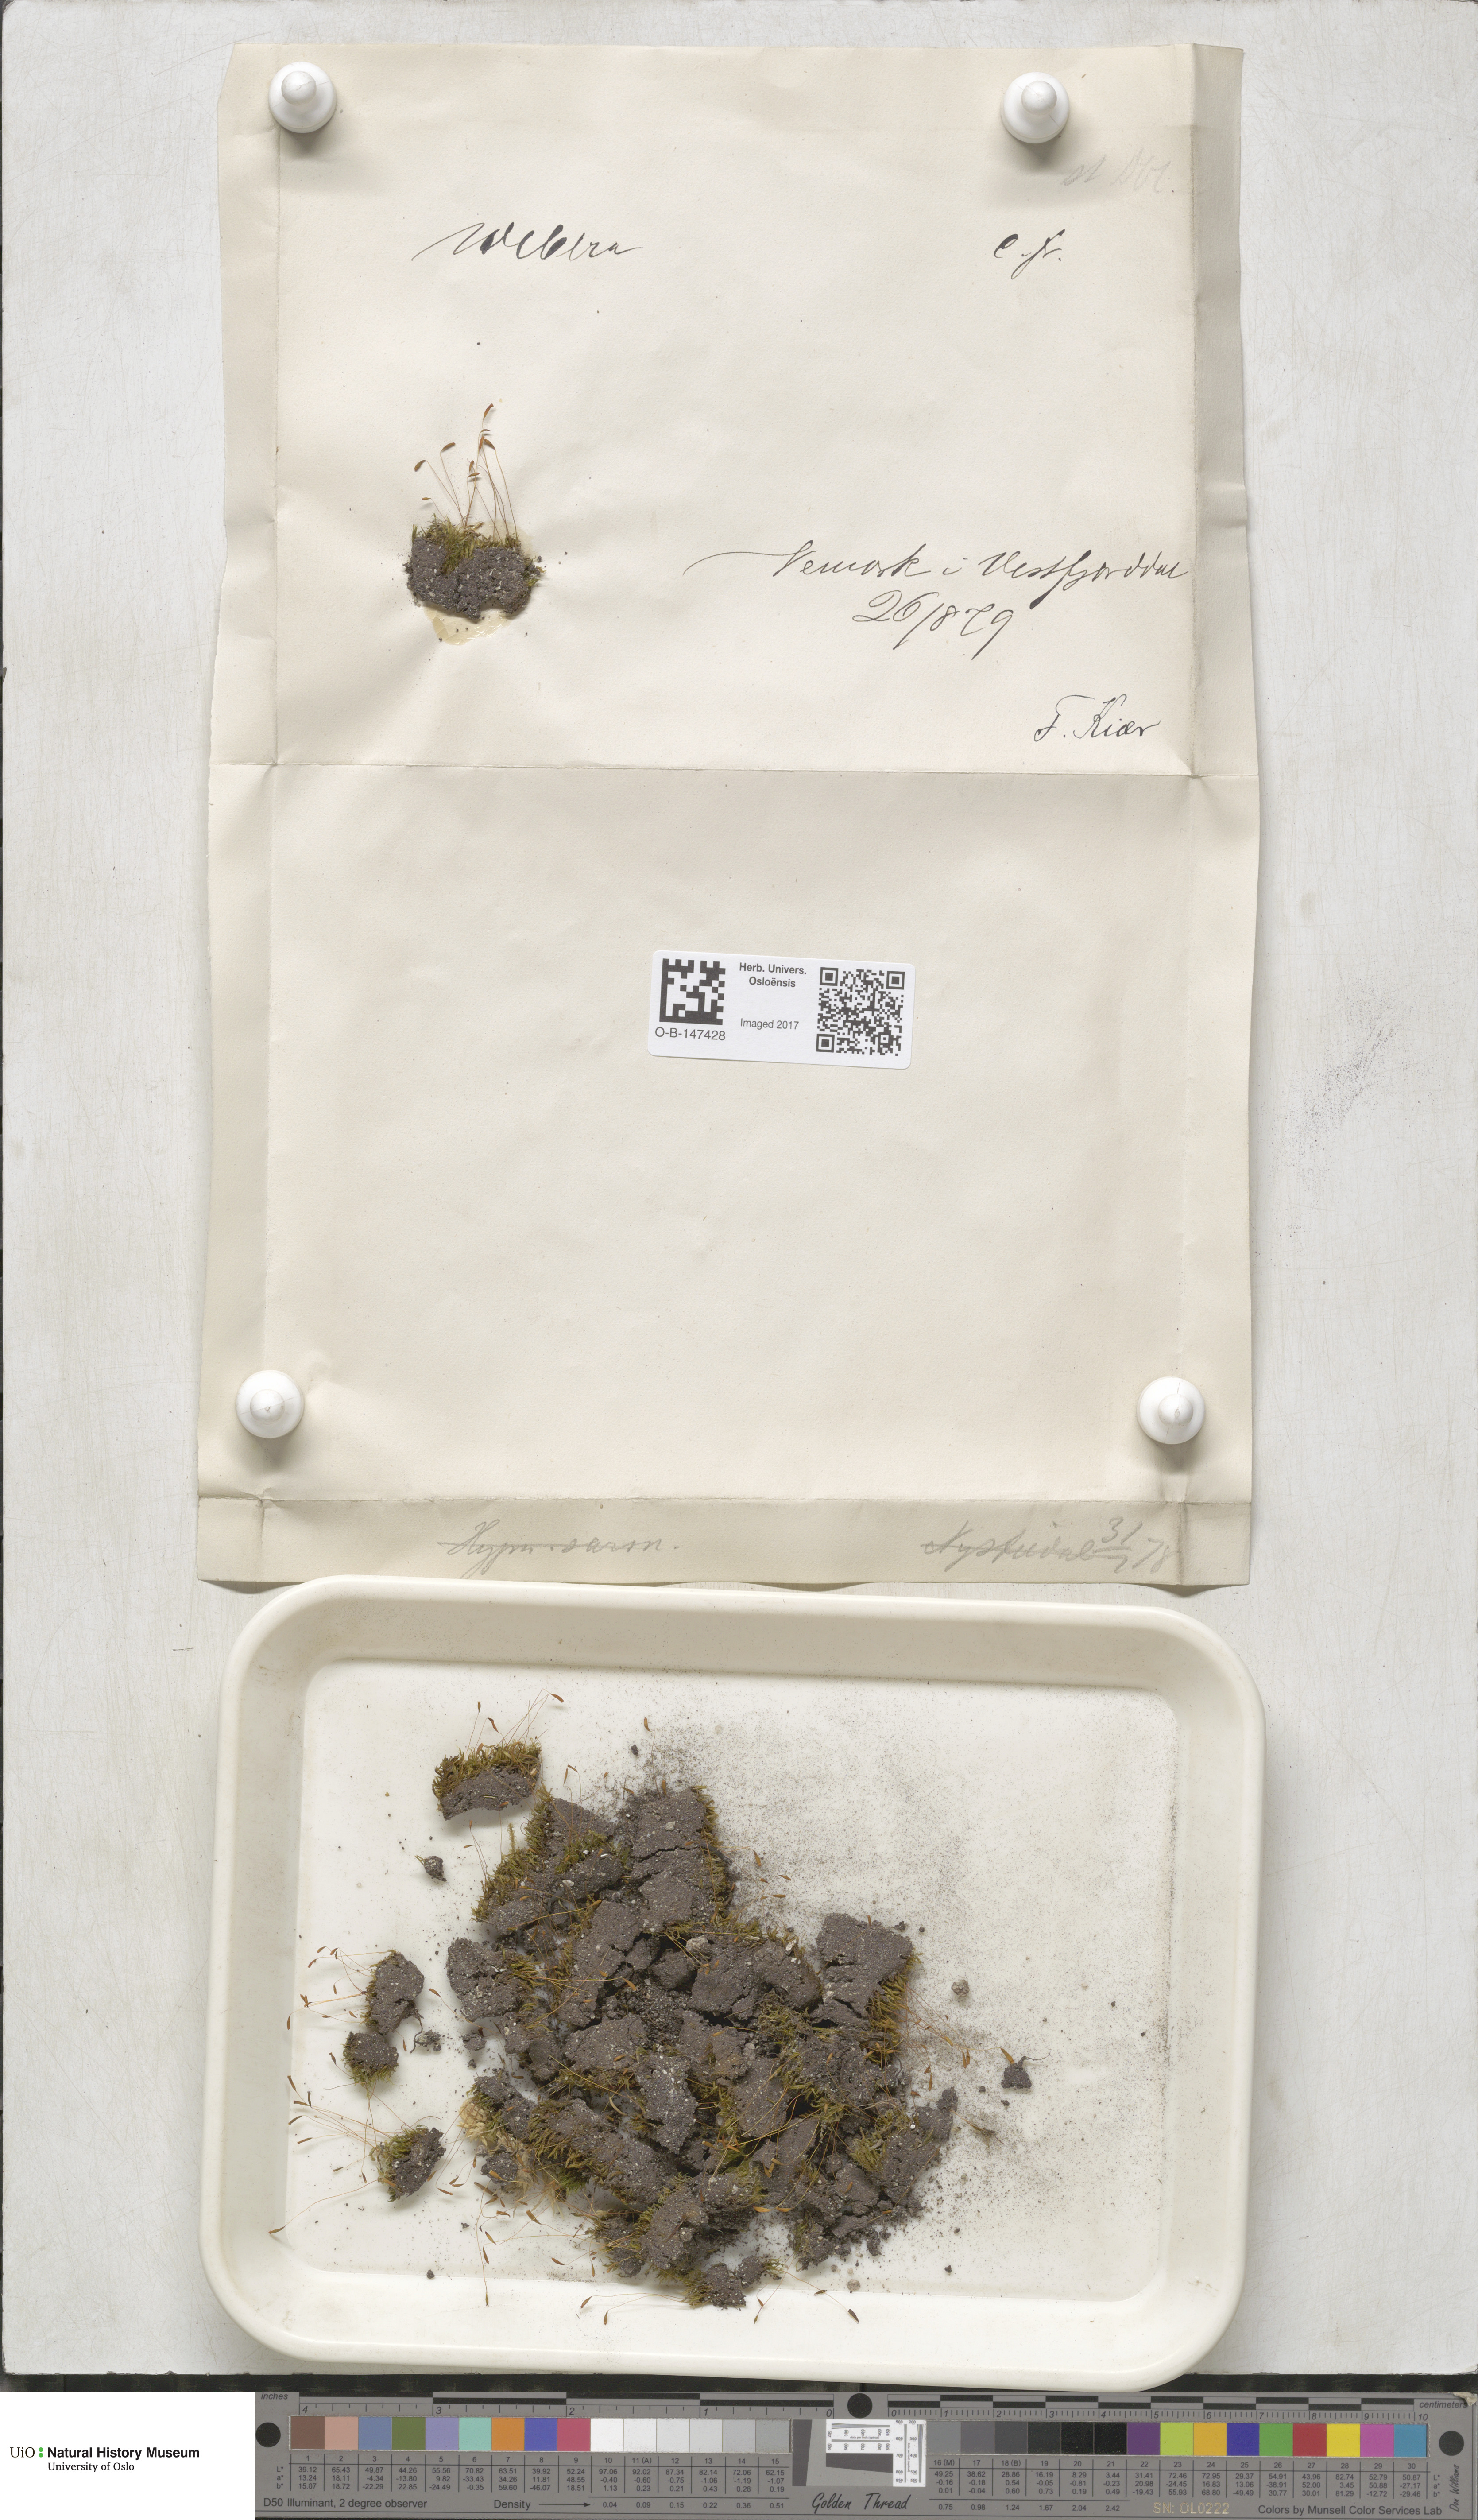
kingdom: Plantae
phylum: Bryophyta
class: Bryopsida
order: Bryales
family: Mniaceae
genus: Pohlia
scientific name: Pohlia
